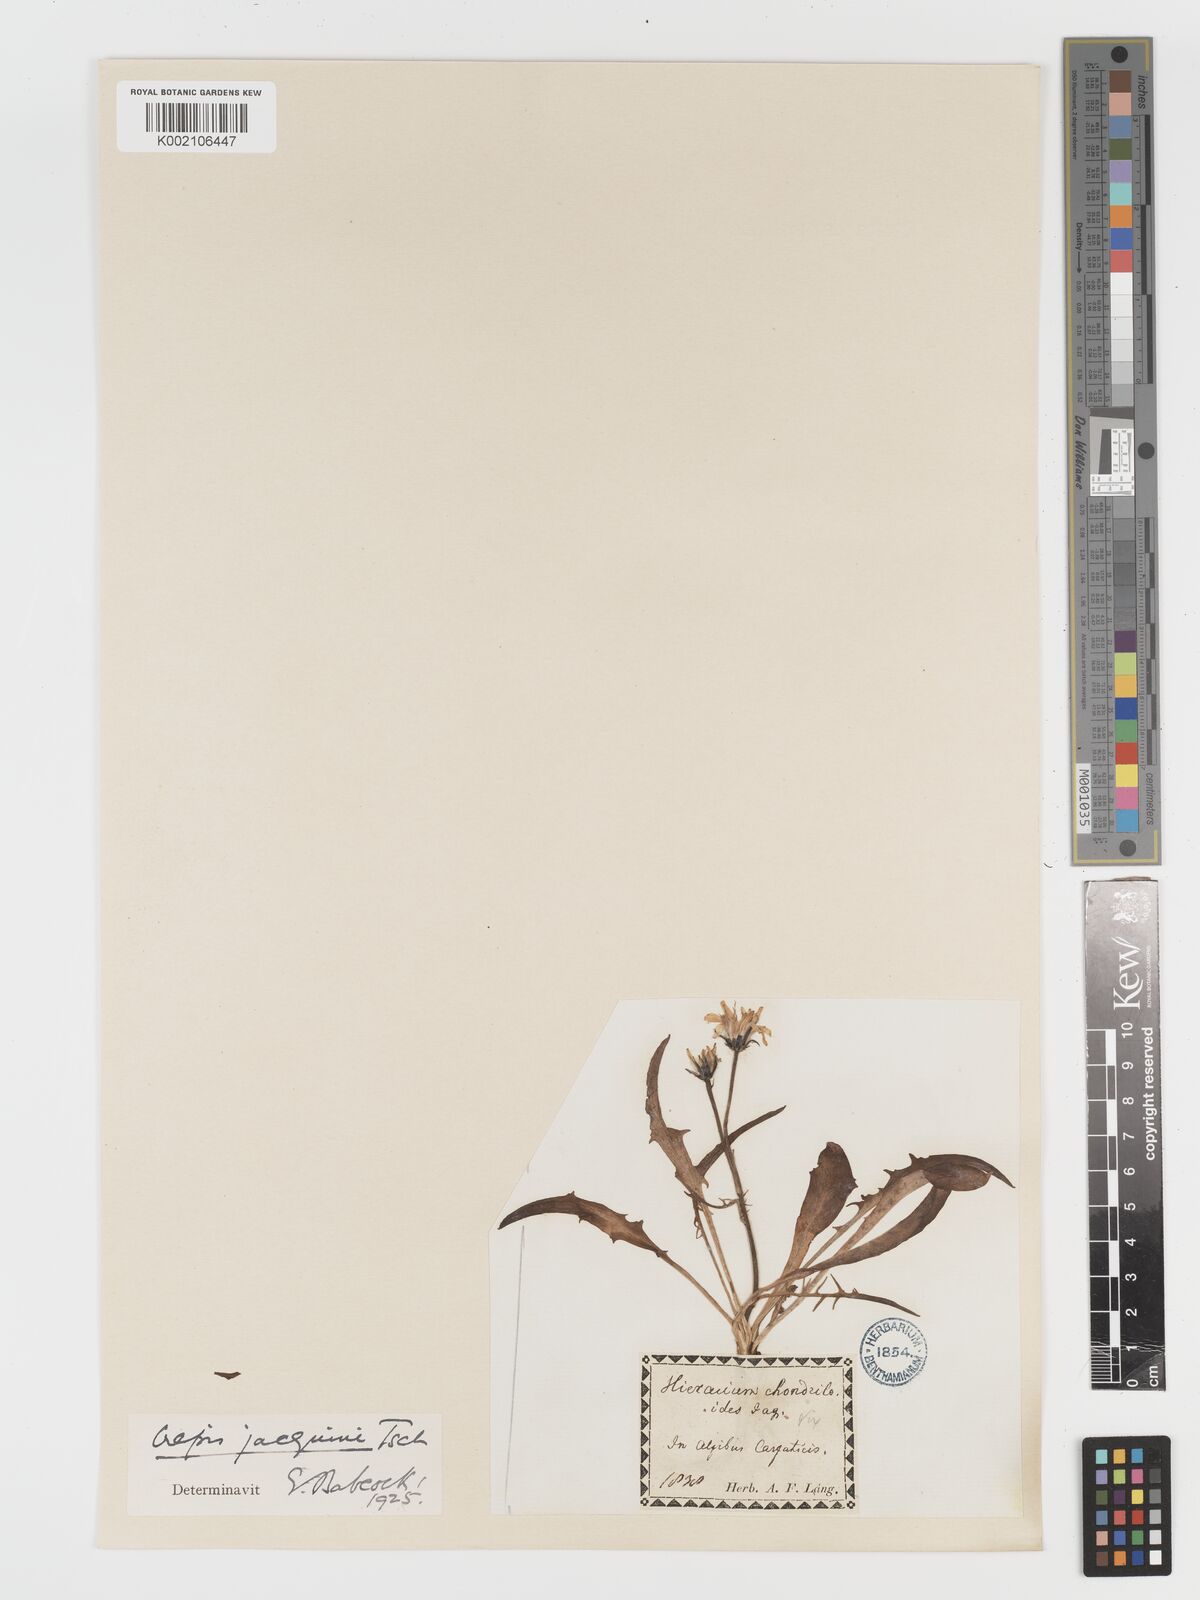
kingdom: Plantae
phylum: Tracheophyta
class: Magnoliopsida
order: Asterales
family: Asteraceae
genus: Crepis
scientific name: Crepis jacquinii
